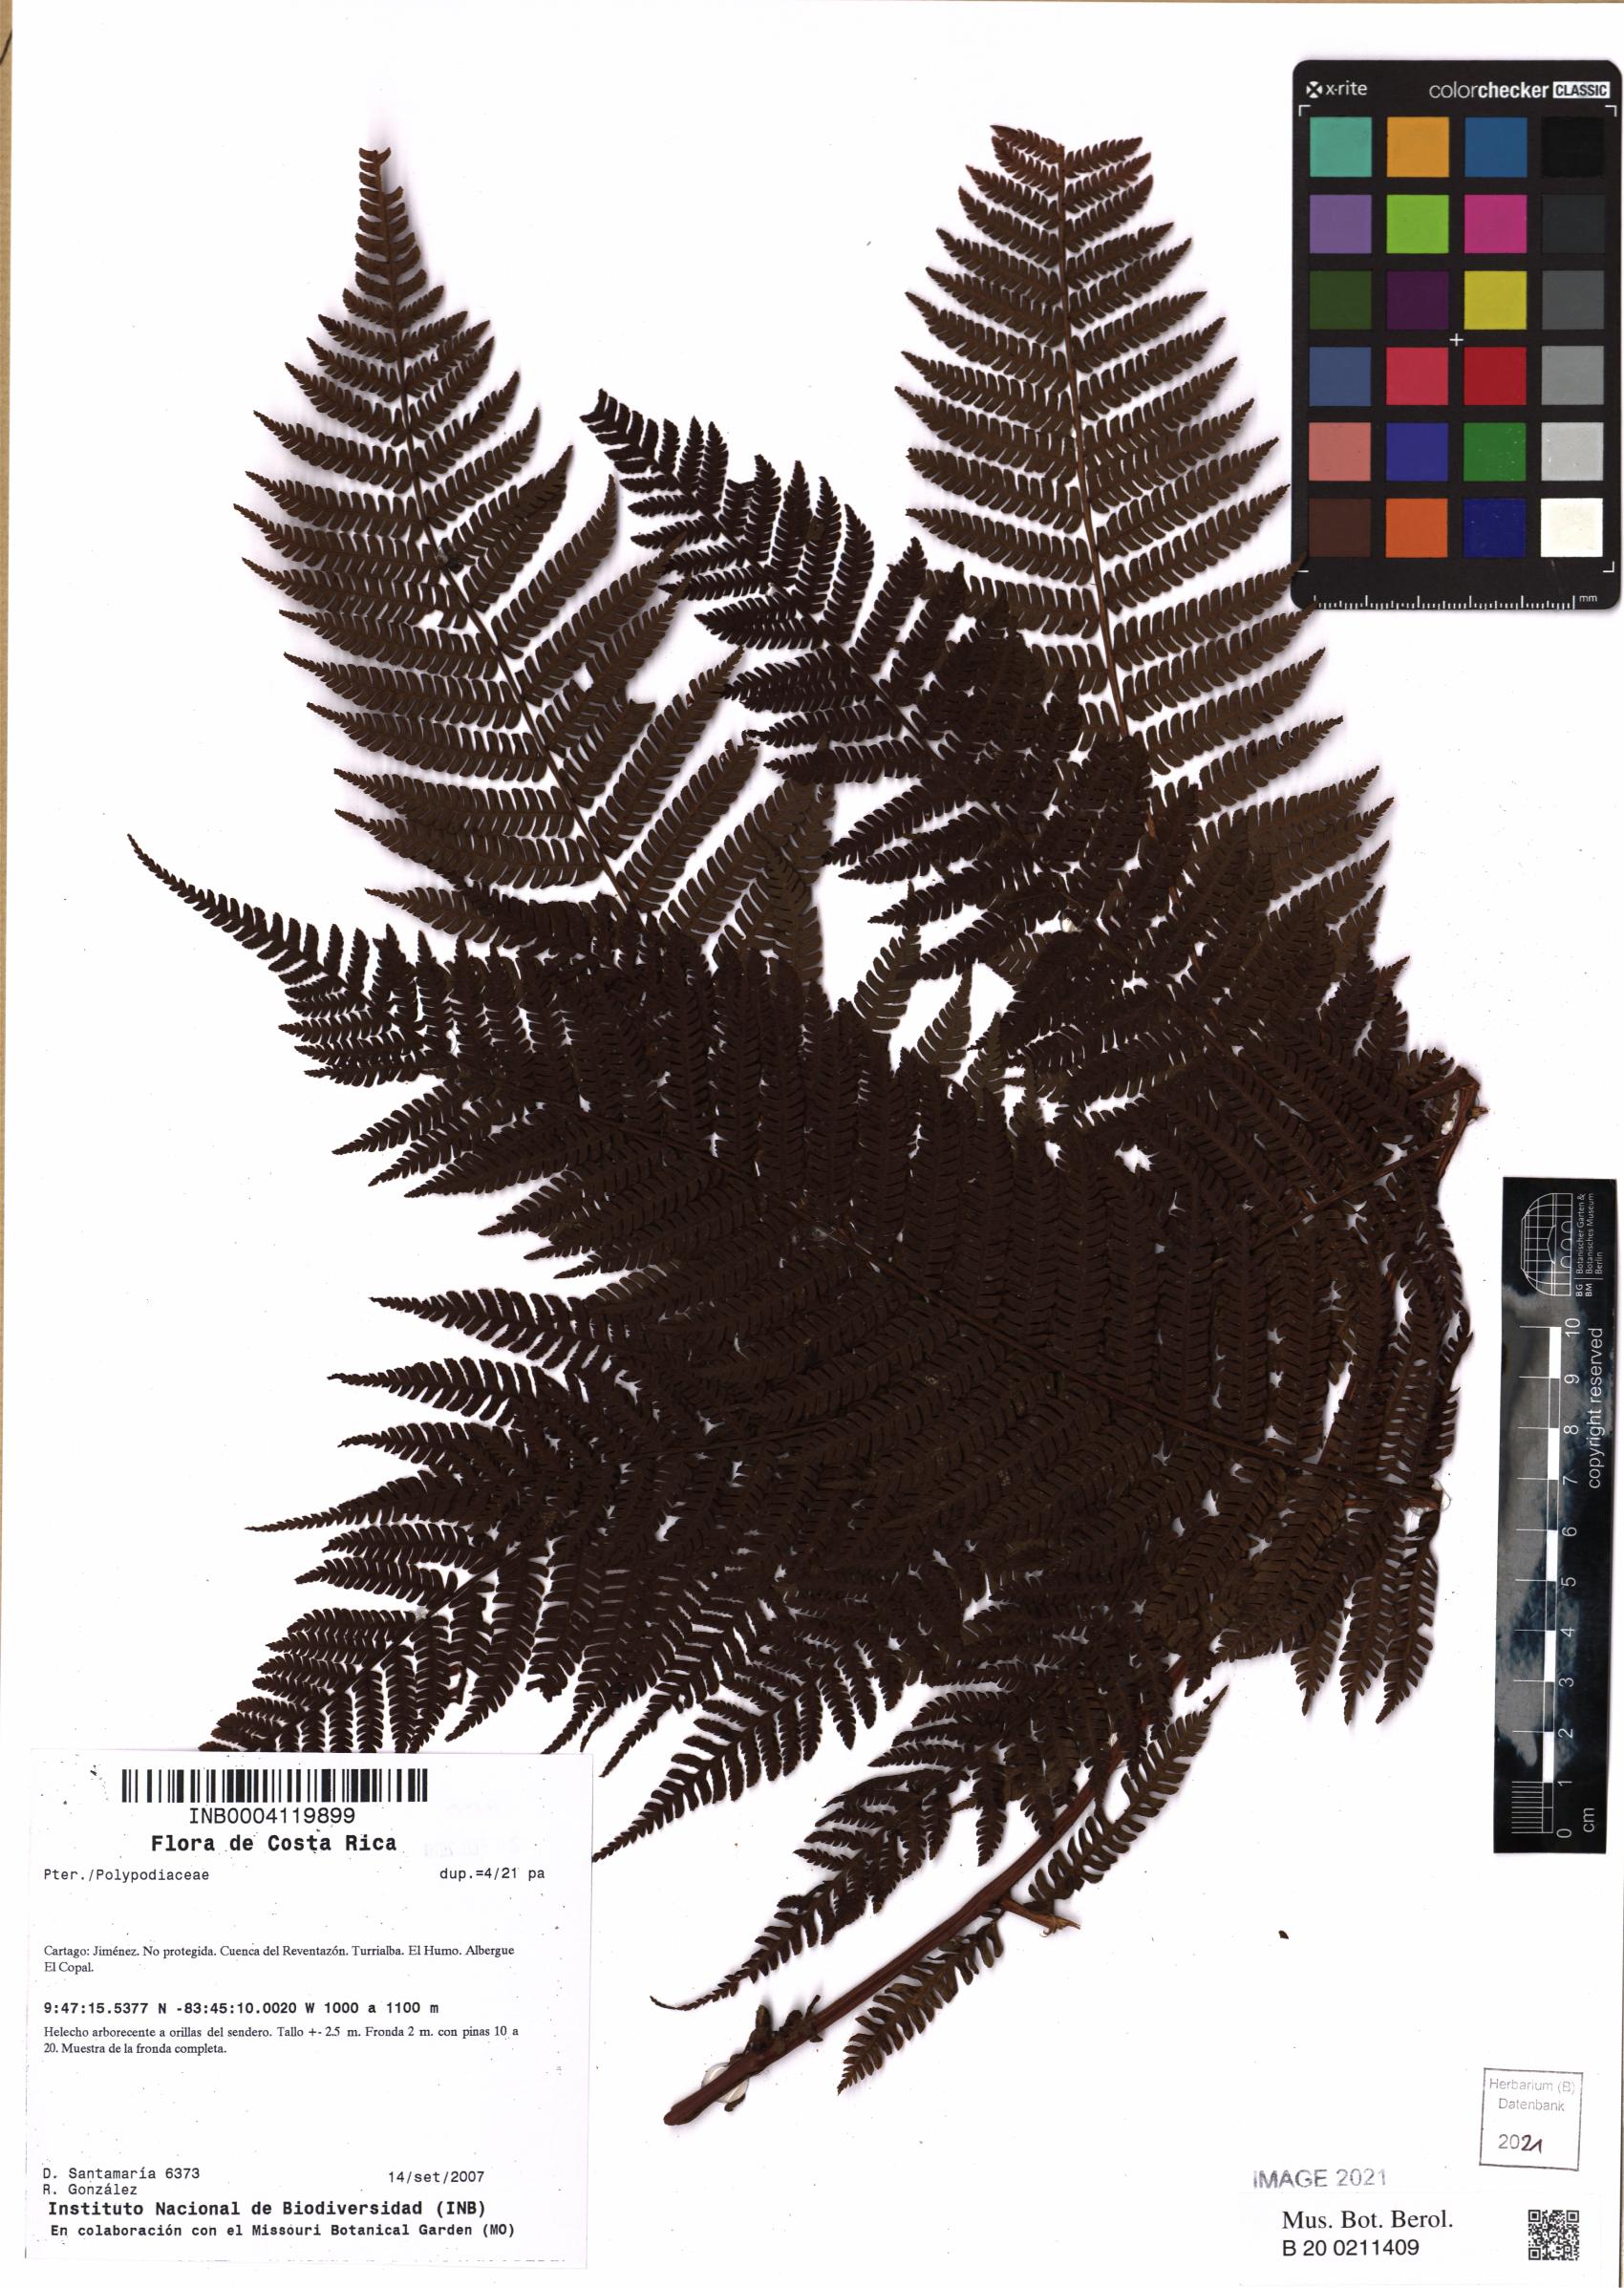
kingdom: Plantae
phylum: Tracheophyta
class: Polypodiopsida
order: Polypodiales
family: Polypodiaceae
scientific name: Polypodiaceae
